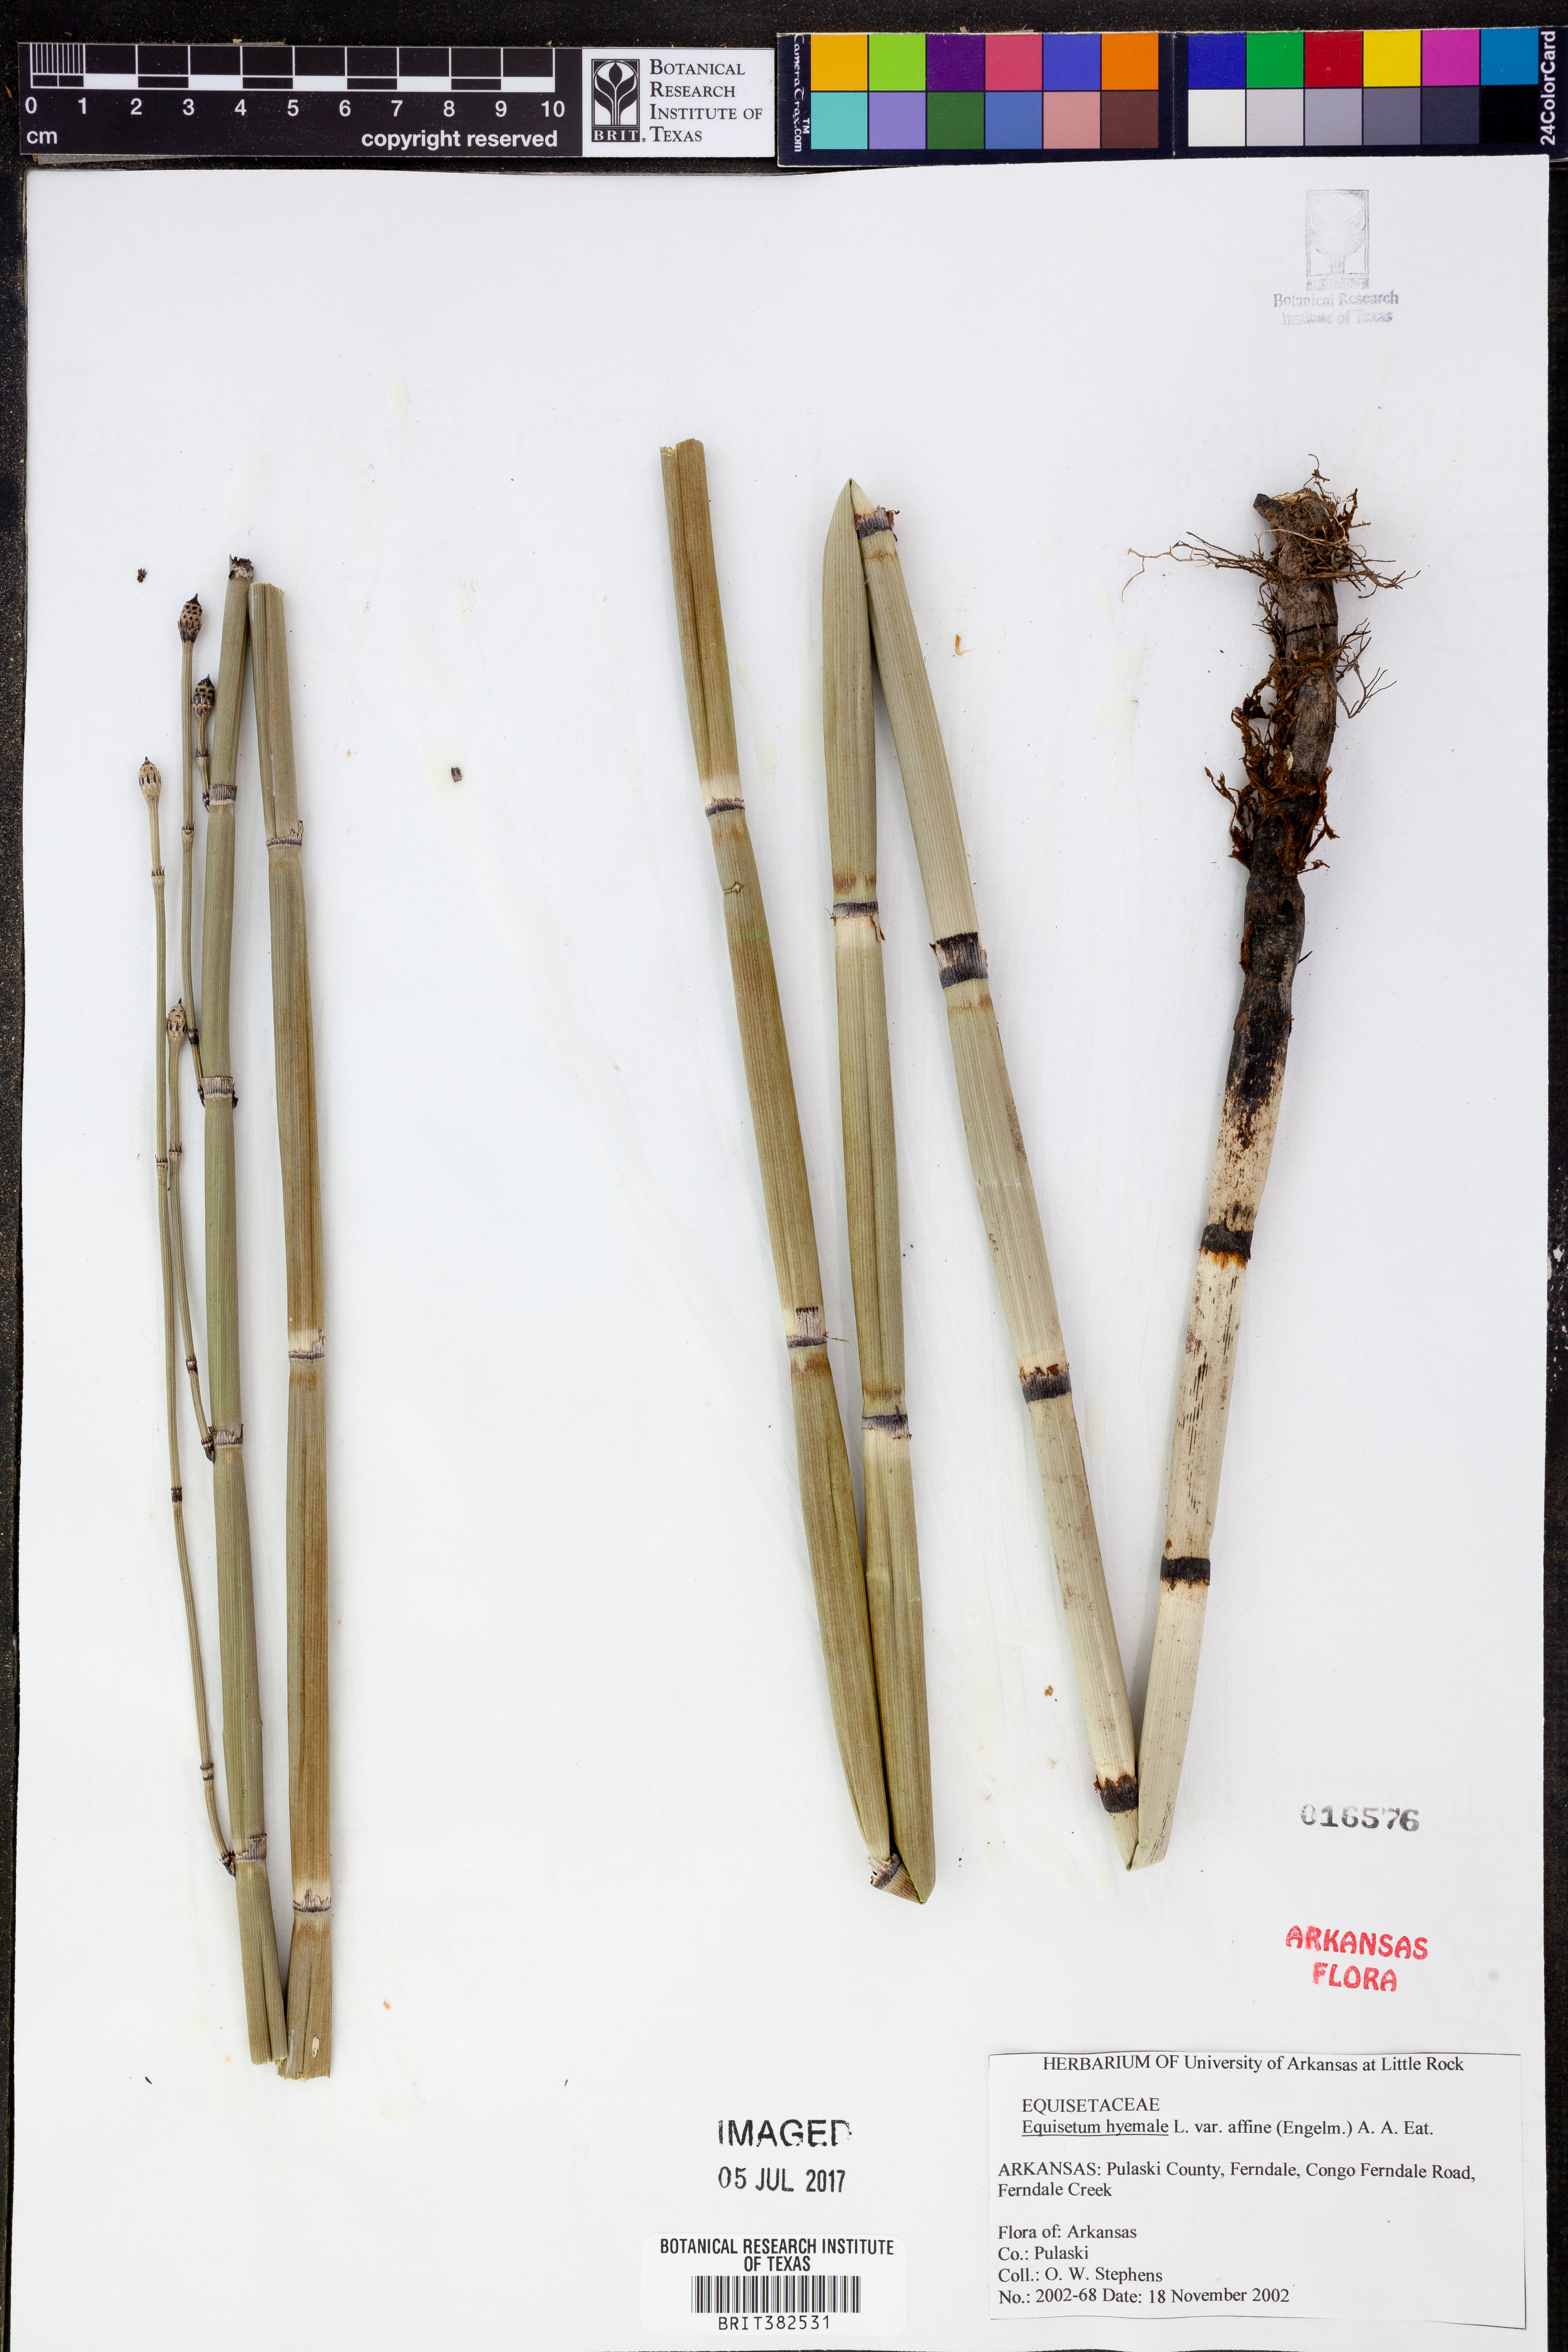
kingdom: Plantae
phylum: Tracheophyta
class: Polypodiopsida
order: Equisetales
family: Equisetaceae
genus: Equisetum
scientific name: Equisetum praealtum
